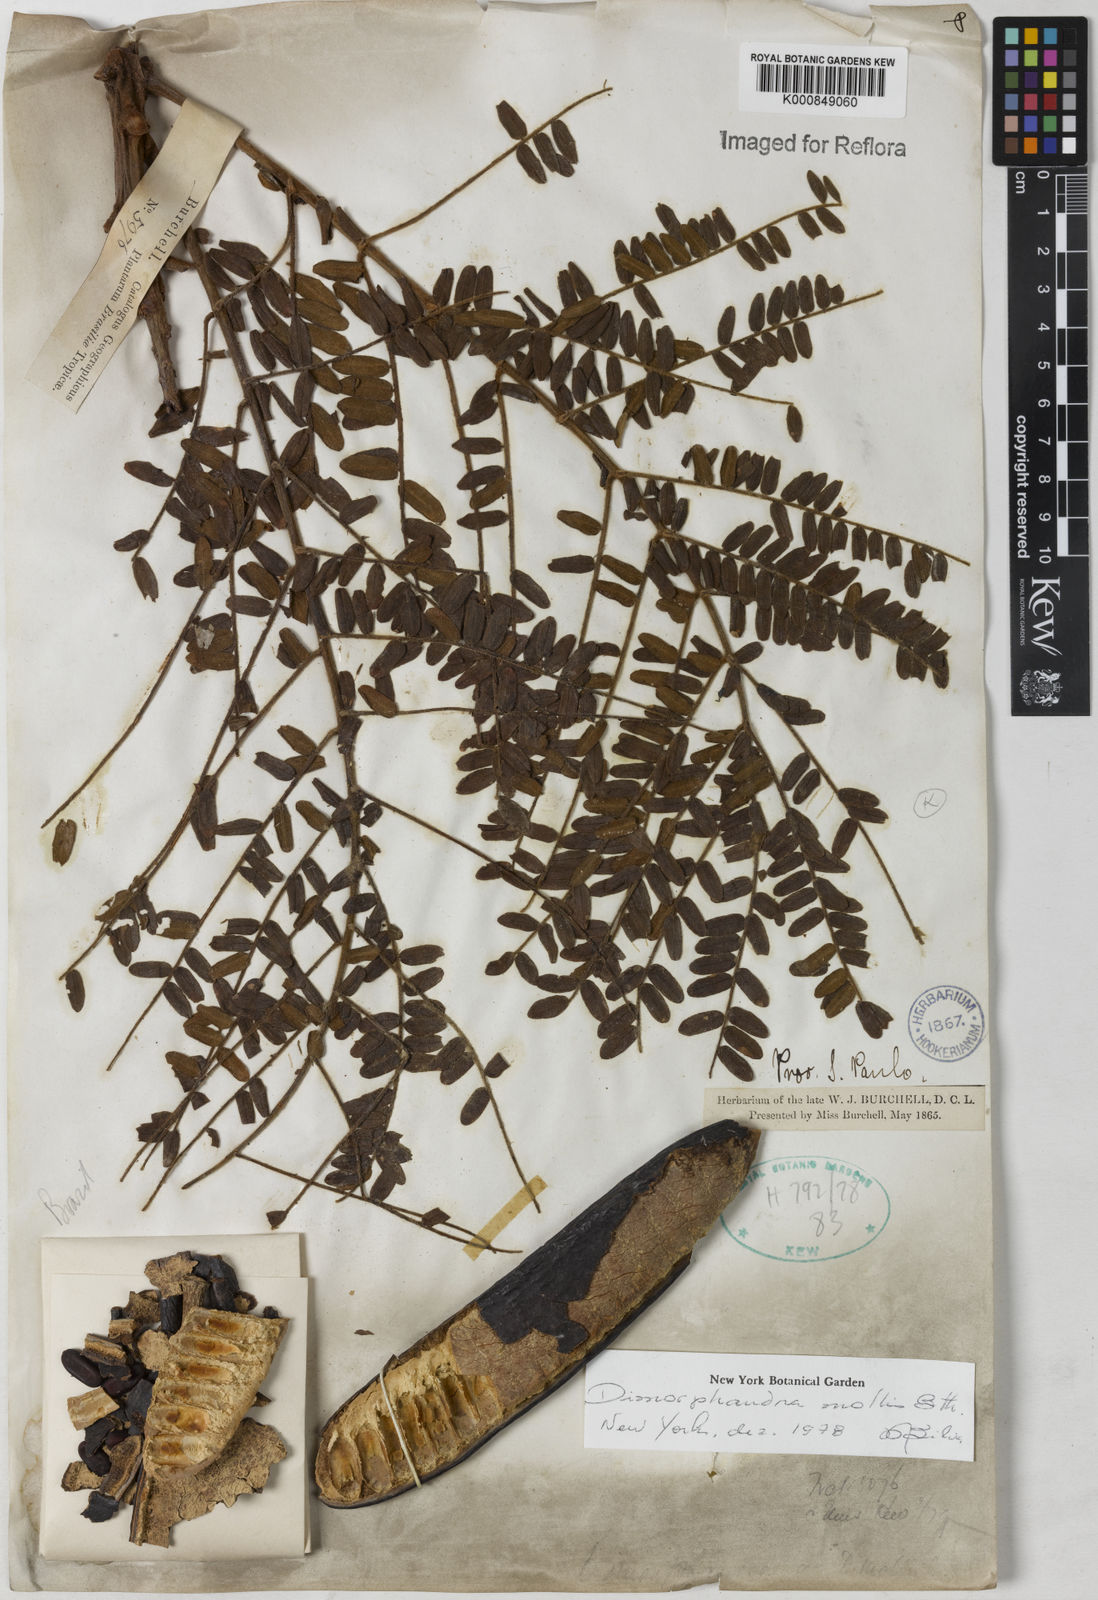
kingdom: Plantae
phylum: Tracheophyta
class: Magnoliopsida
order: Fabales
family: Fabaceae
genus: Dimorphandra
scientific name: Dimorphandra mollis
